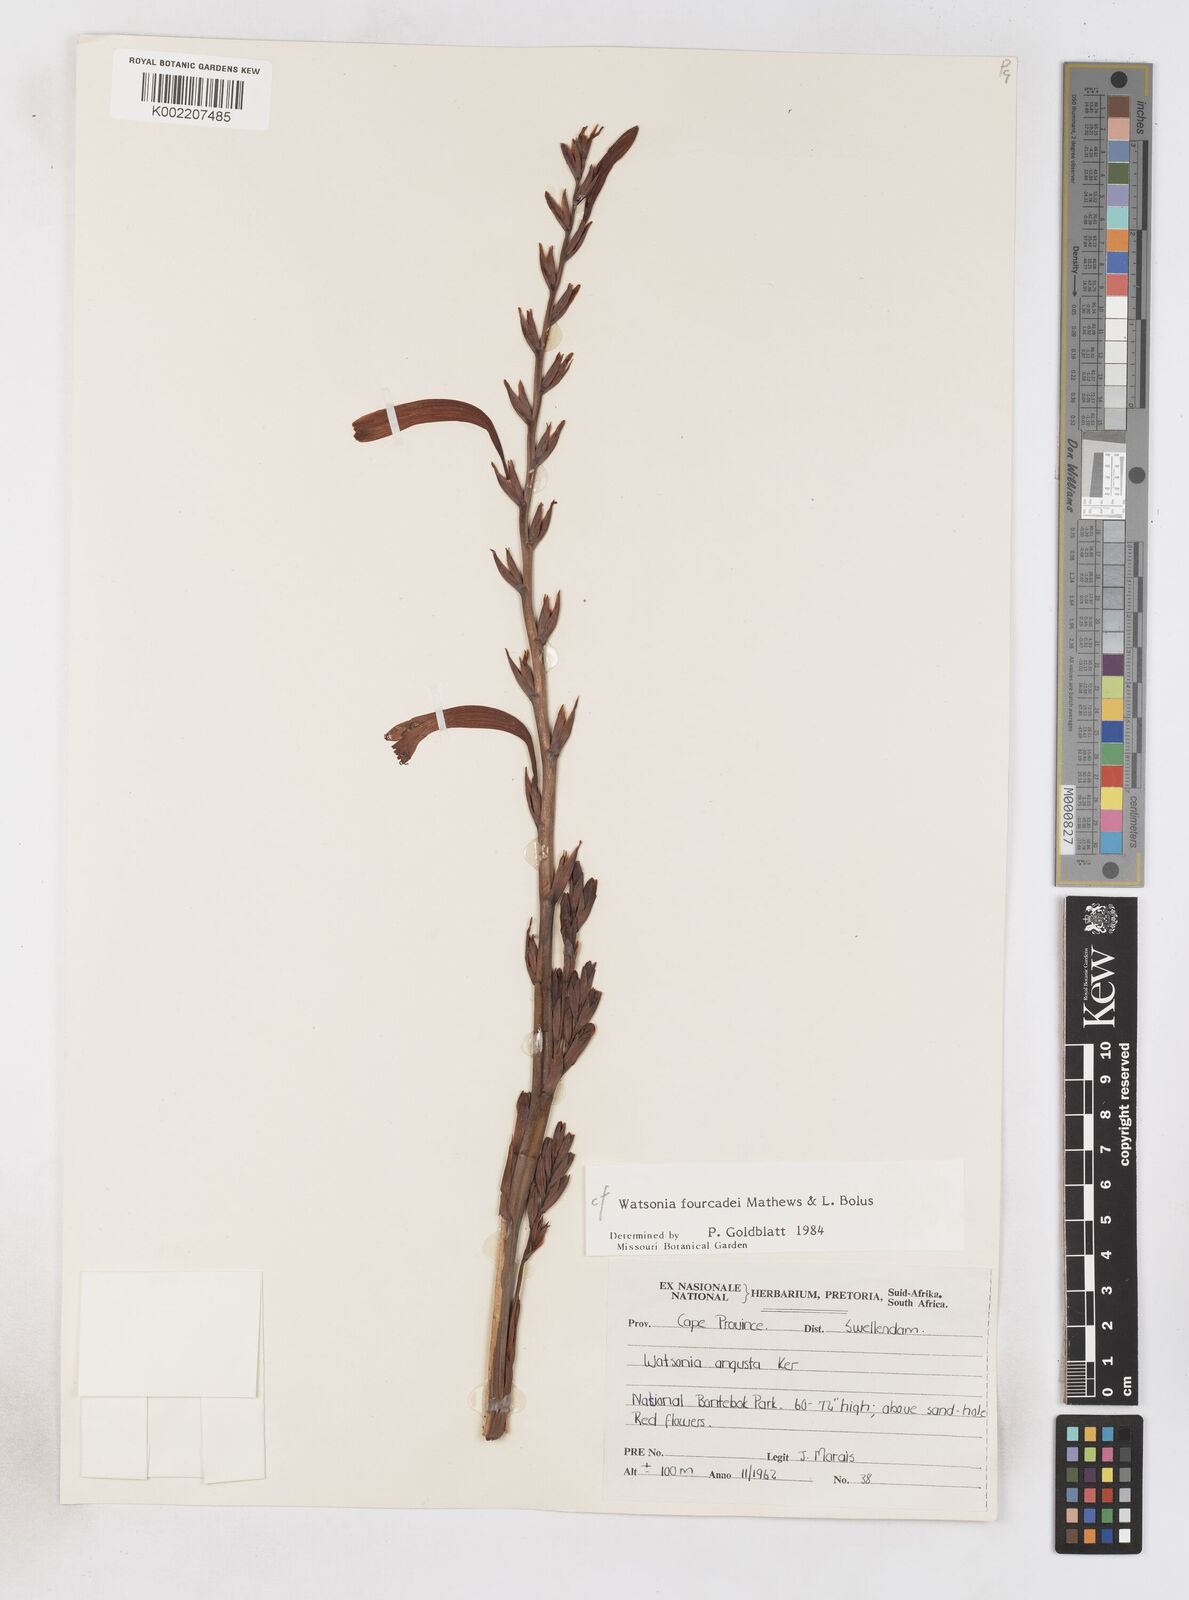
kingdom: Plantae
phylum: Tracheophyta
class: Liliopsida
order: Asparagales
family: Iridaceae
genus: Watsonia
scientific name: Watsonia fourcadei
